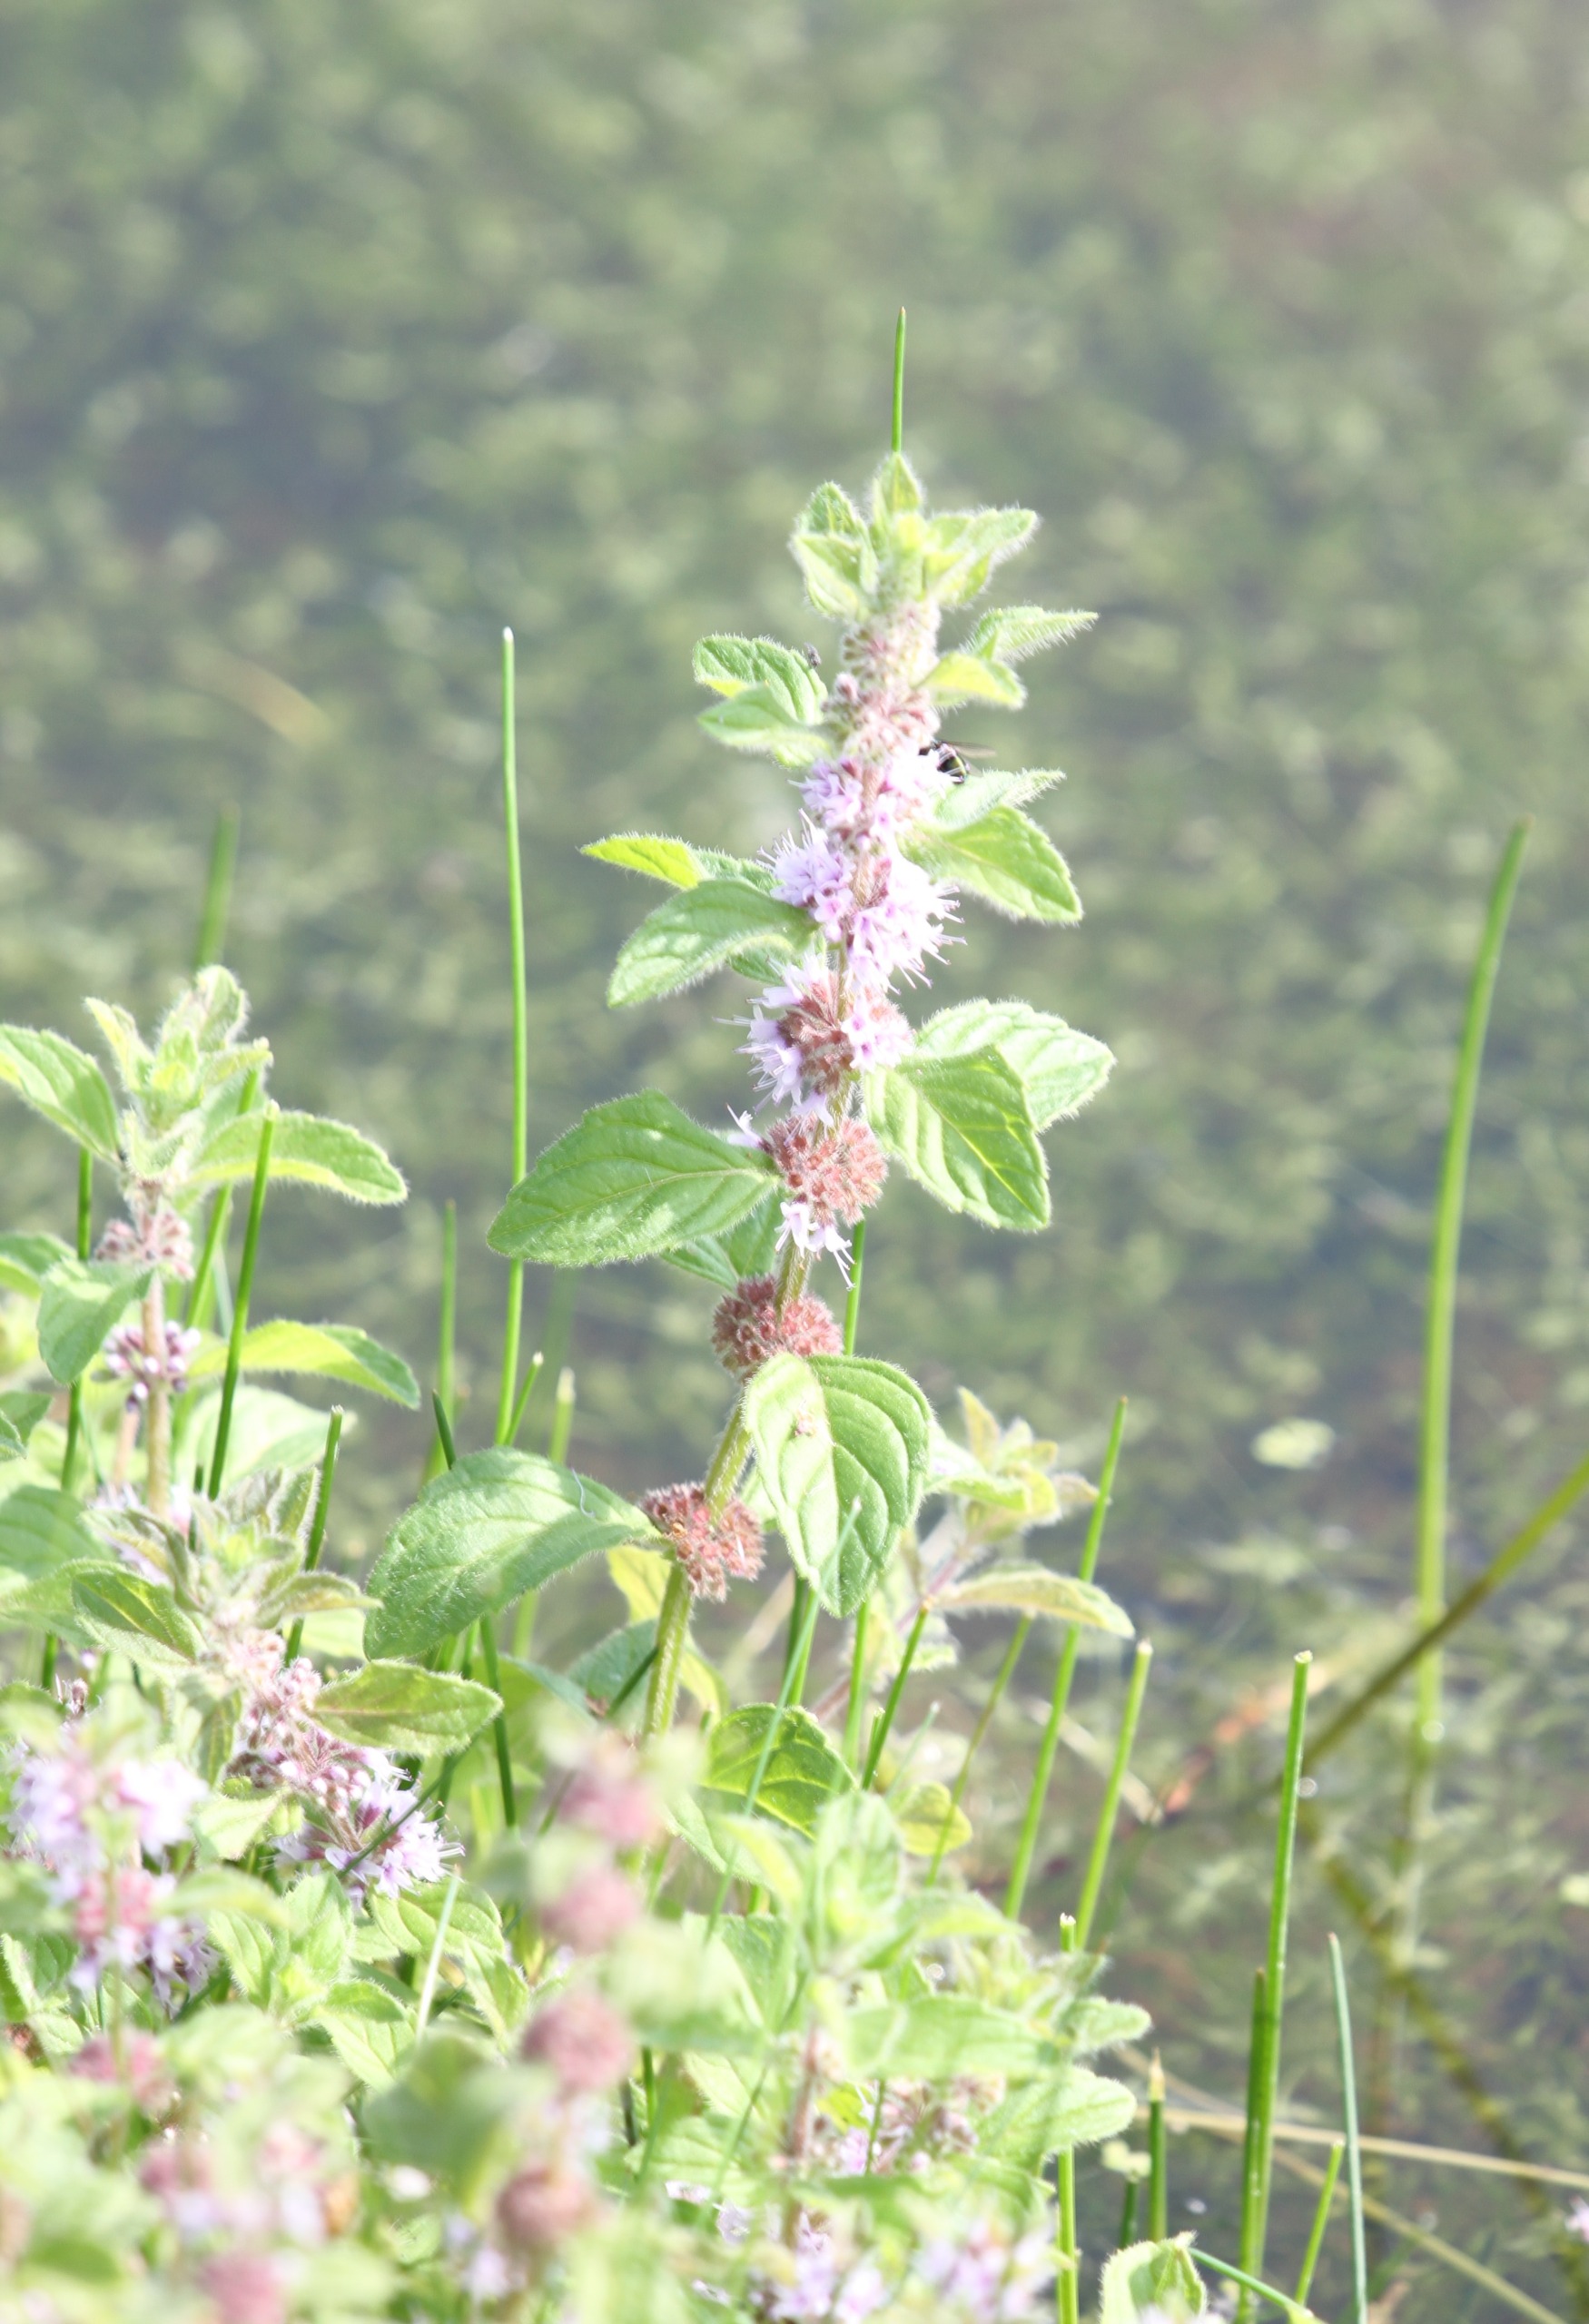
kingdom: Plantae
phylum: Tracheophyta
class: Magnoliopsida
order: Lamiales
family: Lamiaceae
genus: Mentha
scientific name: Mentha arvensis
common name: Ager-mynte
